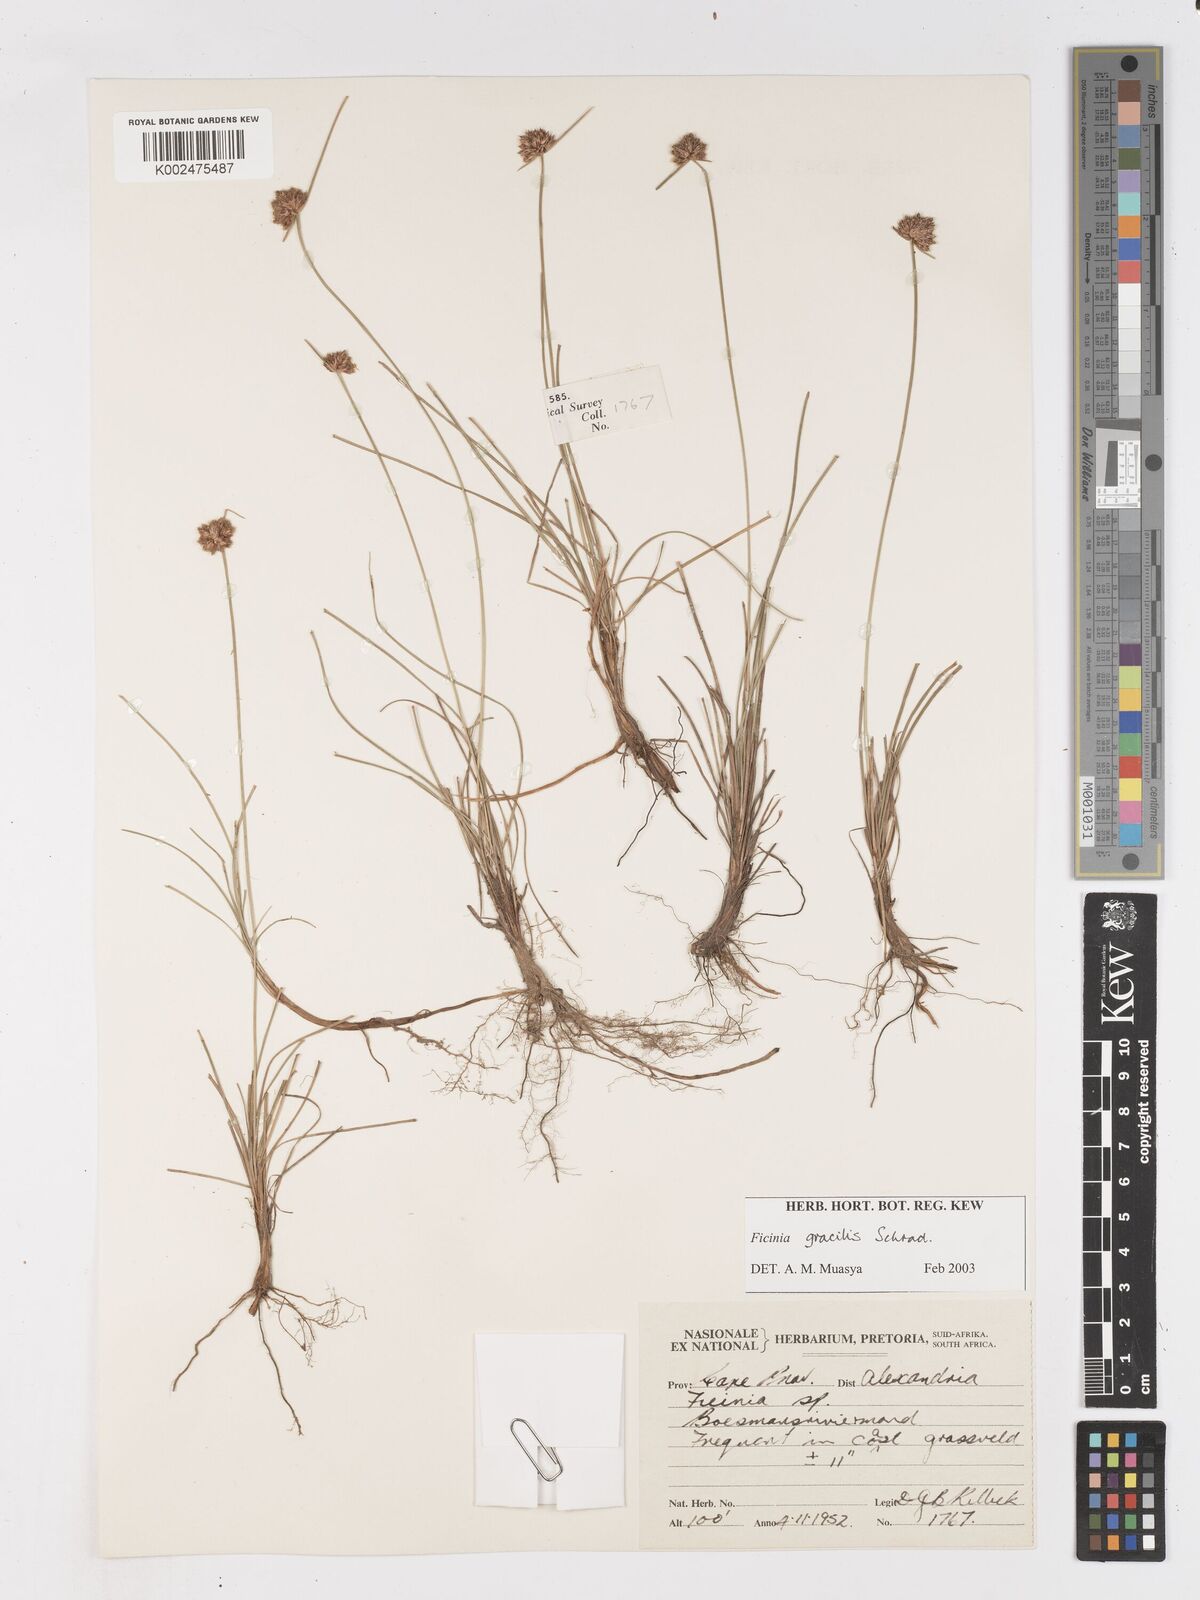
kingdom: Plantae
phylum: Tracheophyta
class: Liliopsida
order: Poales
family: Cyperaceae
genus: Ficinia
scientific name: Ficinia gracilis
